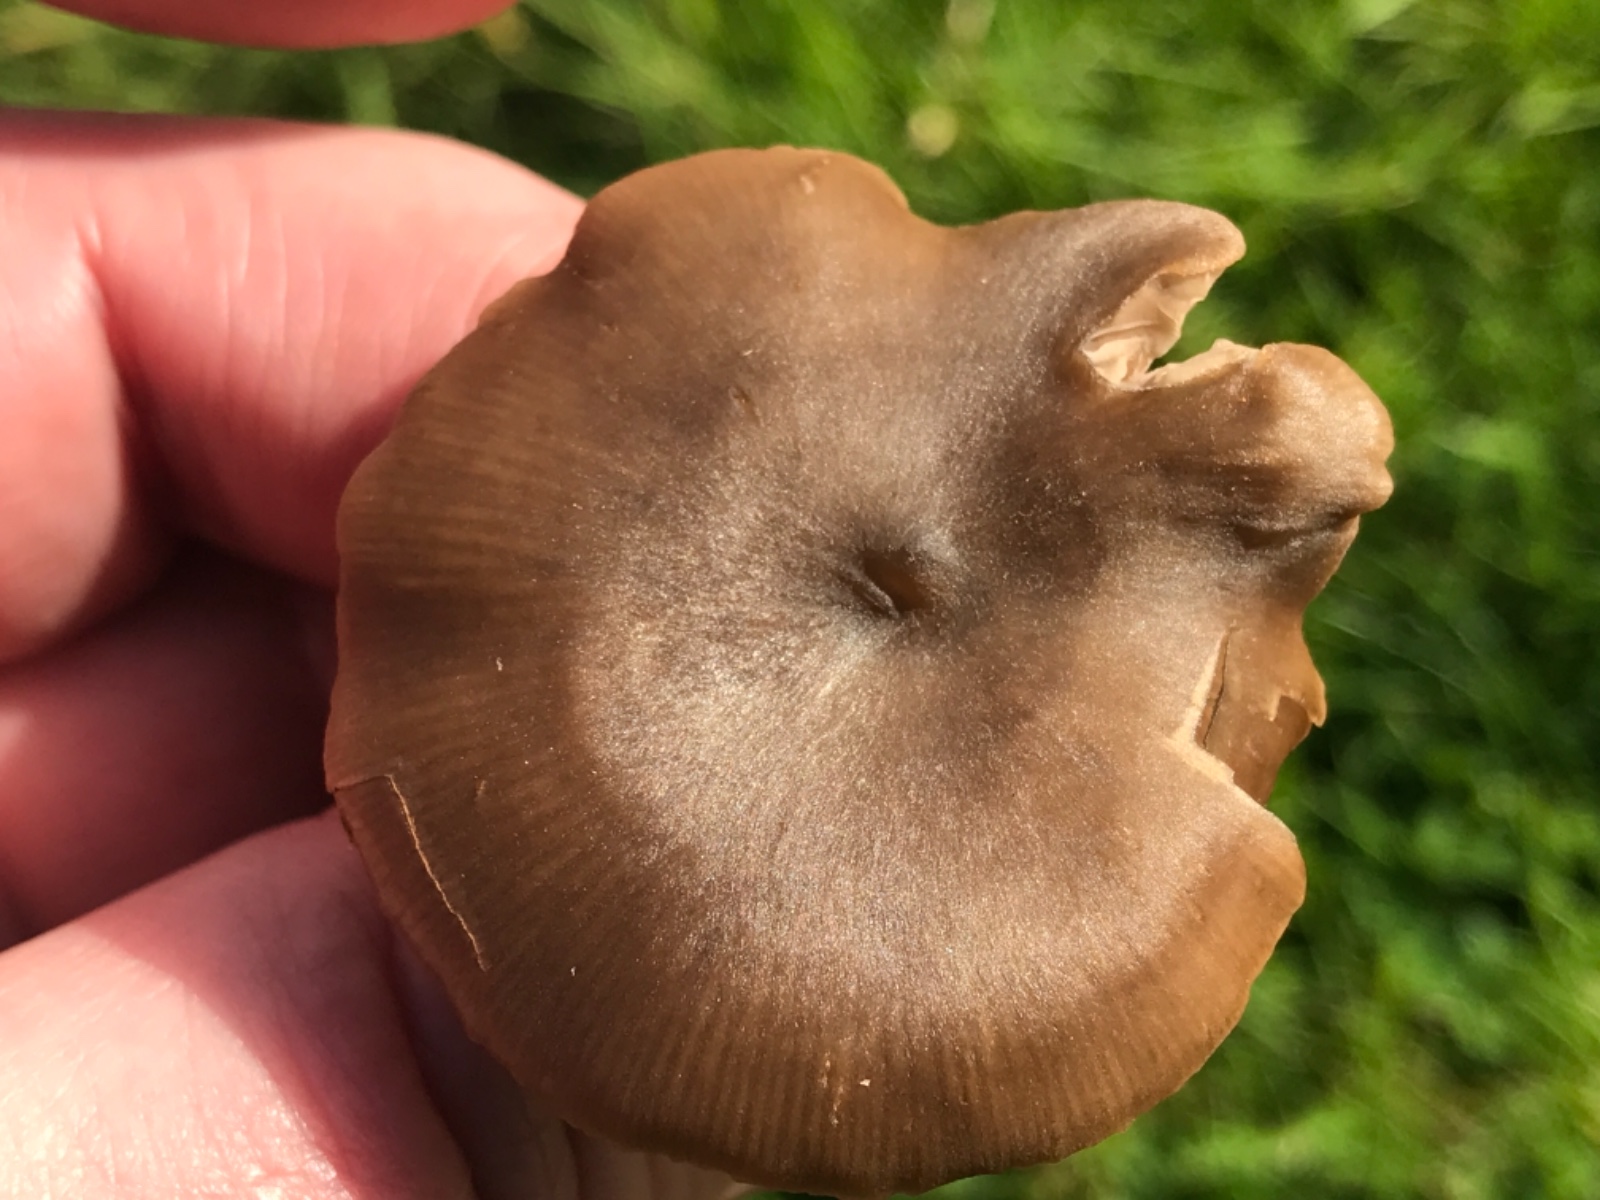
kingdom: Fungi
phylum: Basidiomycota
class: Agaricomycetes
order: Agaricales
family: Entolomataceae
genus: Entoloma
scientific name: Entoloma
